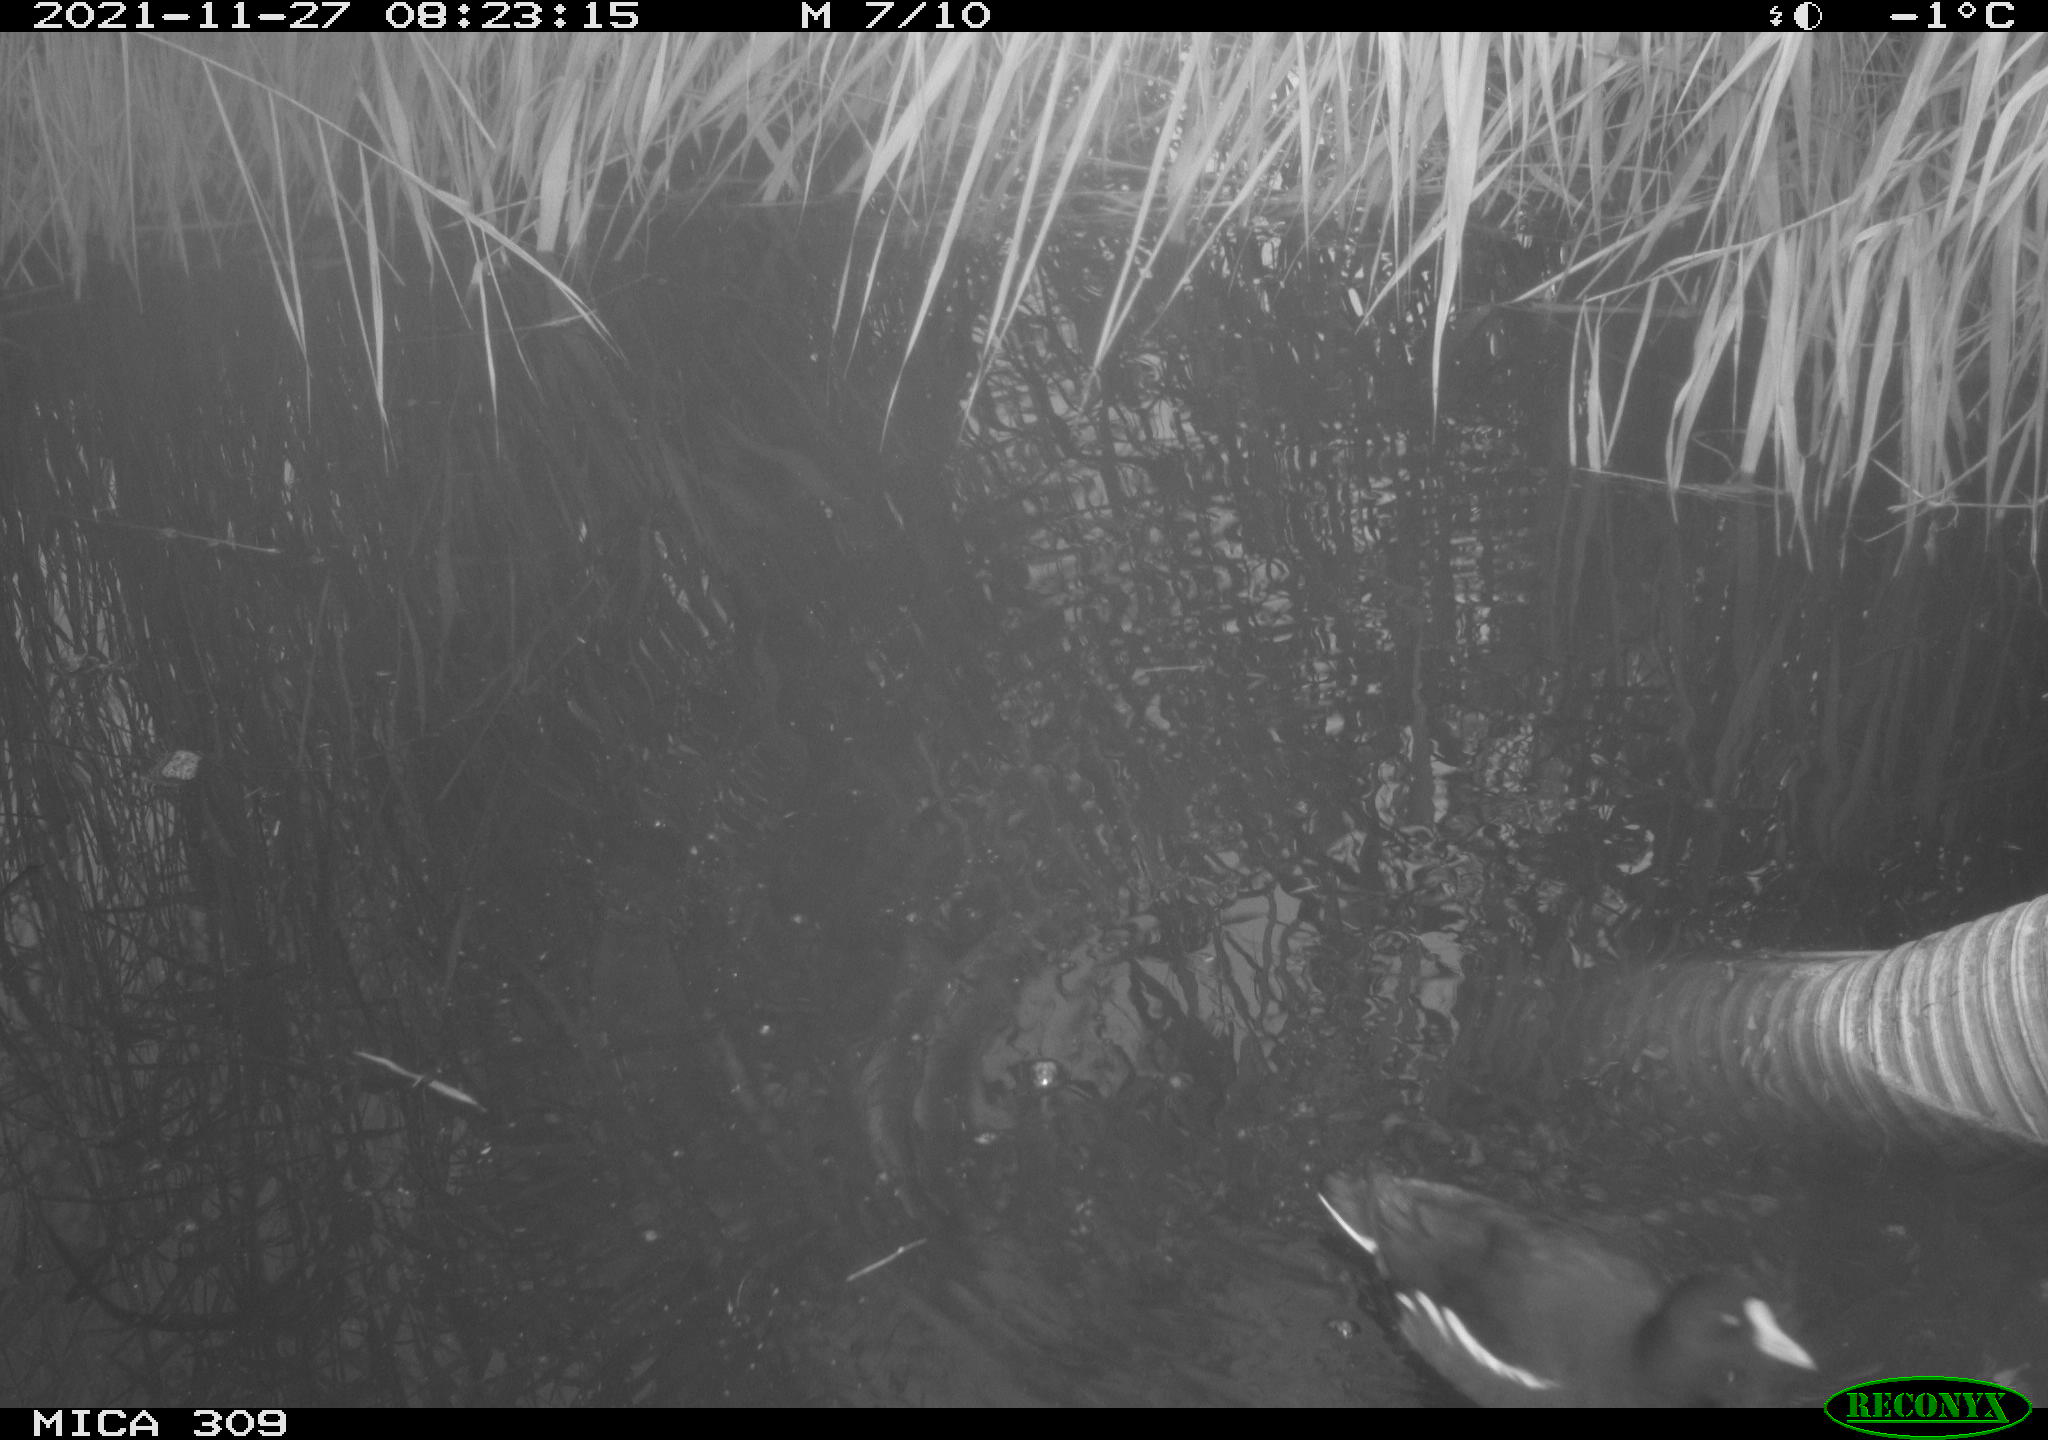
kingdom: Animalia
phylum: Chordata
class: Aves
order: Gruiformes
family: Rallidae
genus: Gallinula
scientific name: Gallinula chloropus
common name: Common moorhen
